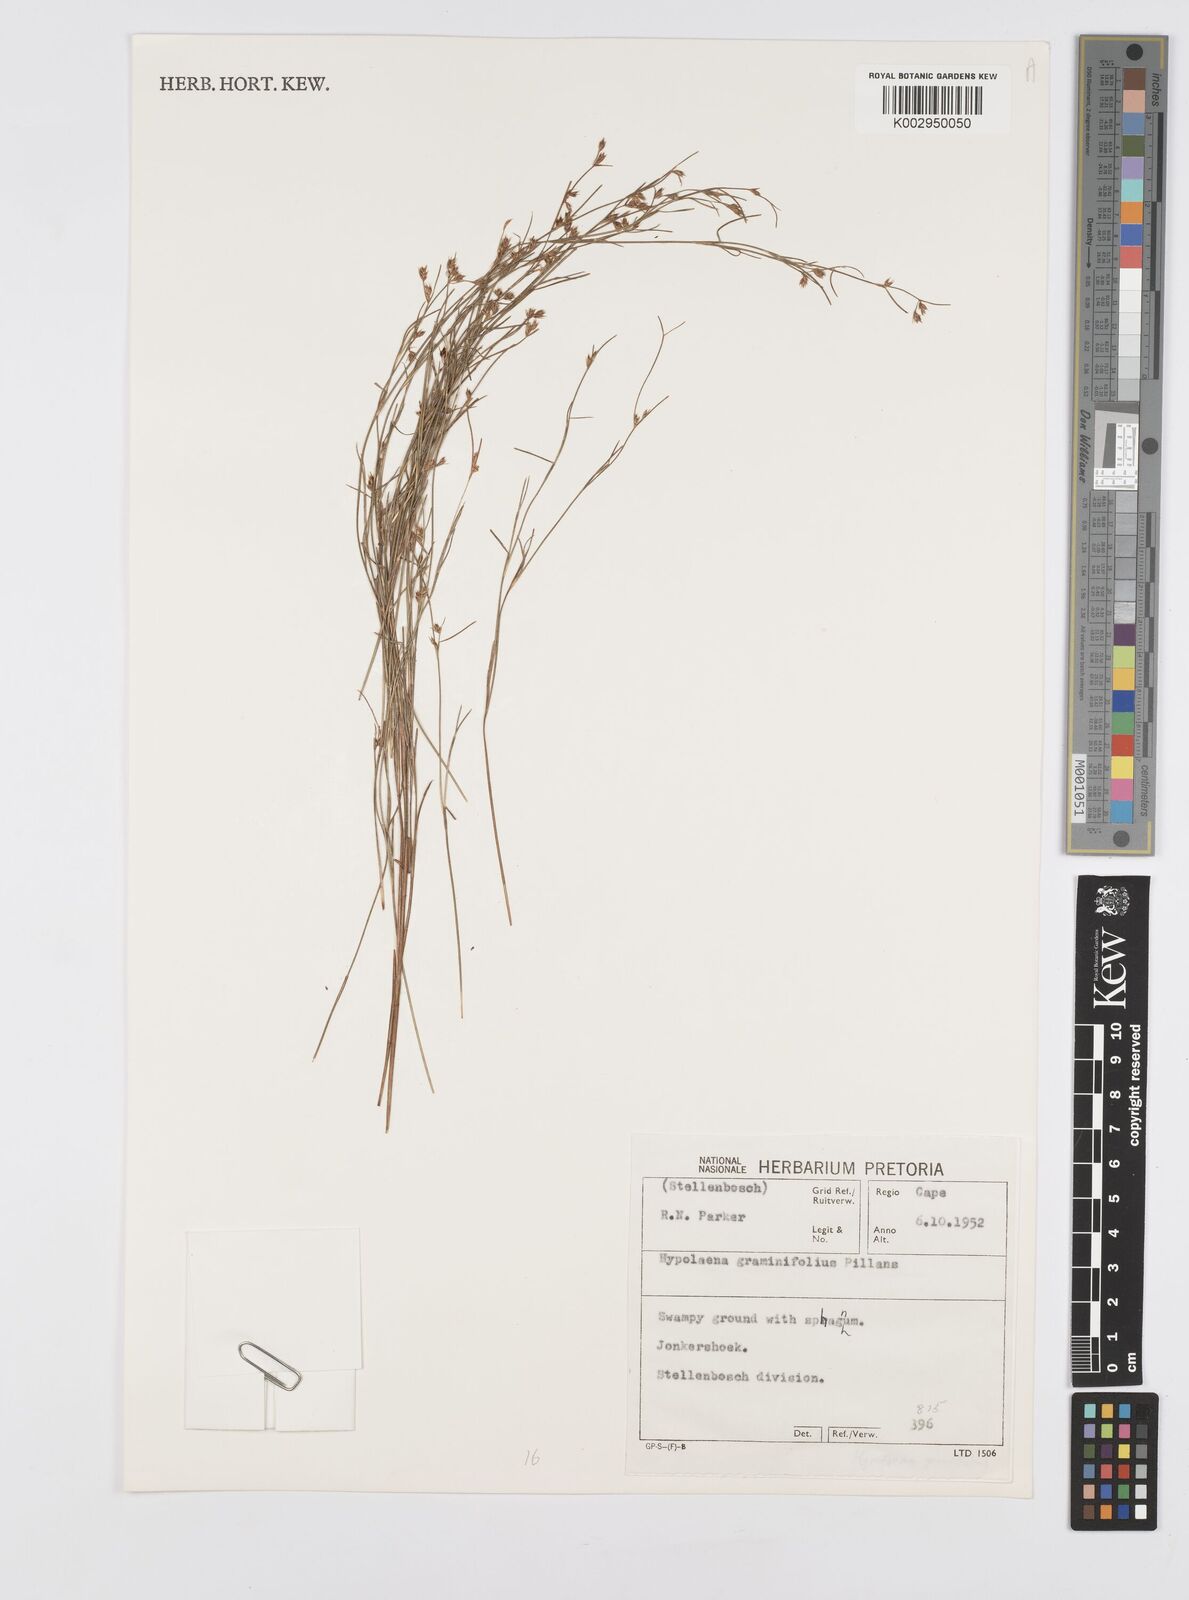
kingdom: Plantae
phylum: Tracheophyta
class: Liliopsida
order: Poales
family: Restionaceae
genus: Anthochortus
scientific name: Anthochortus graminifolius
